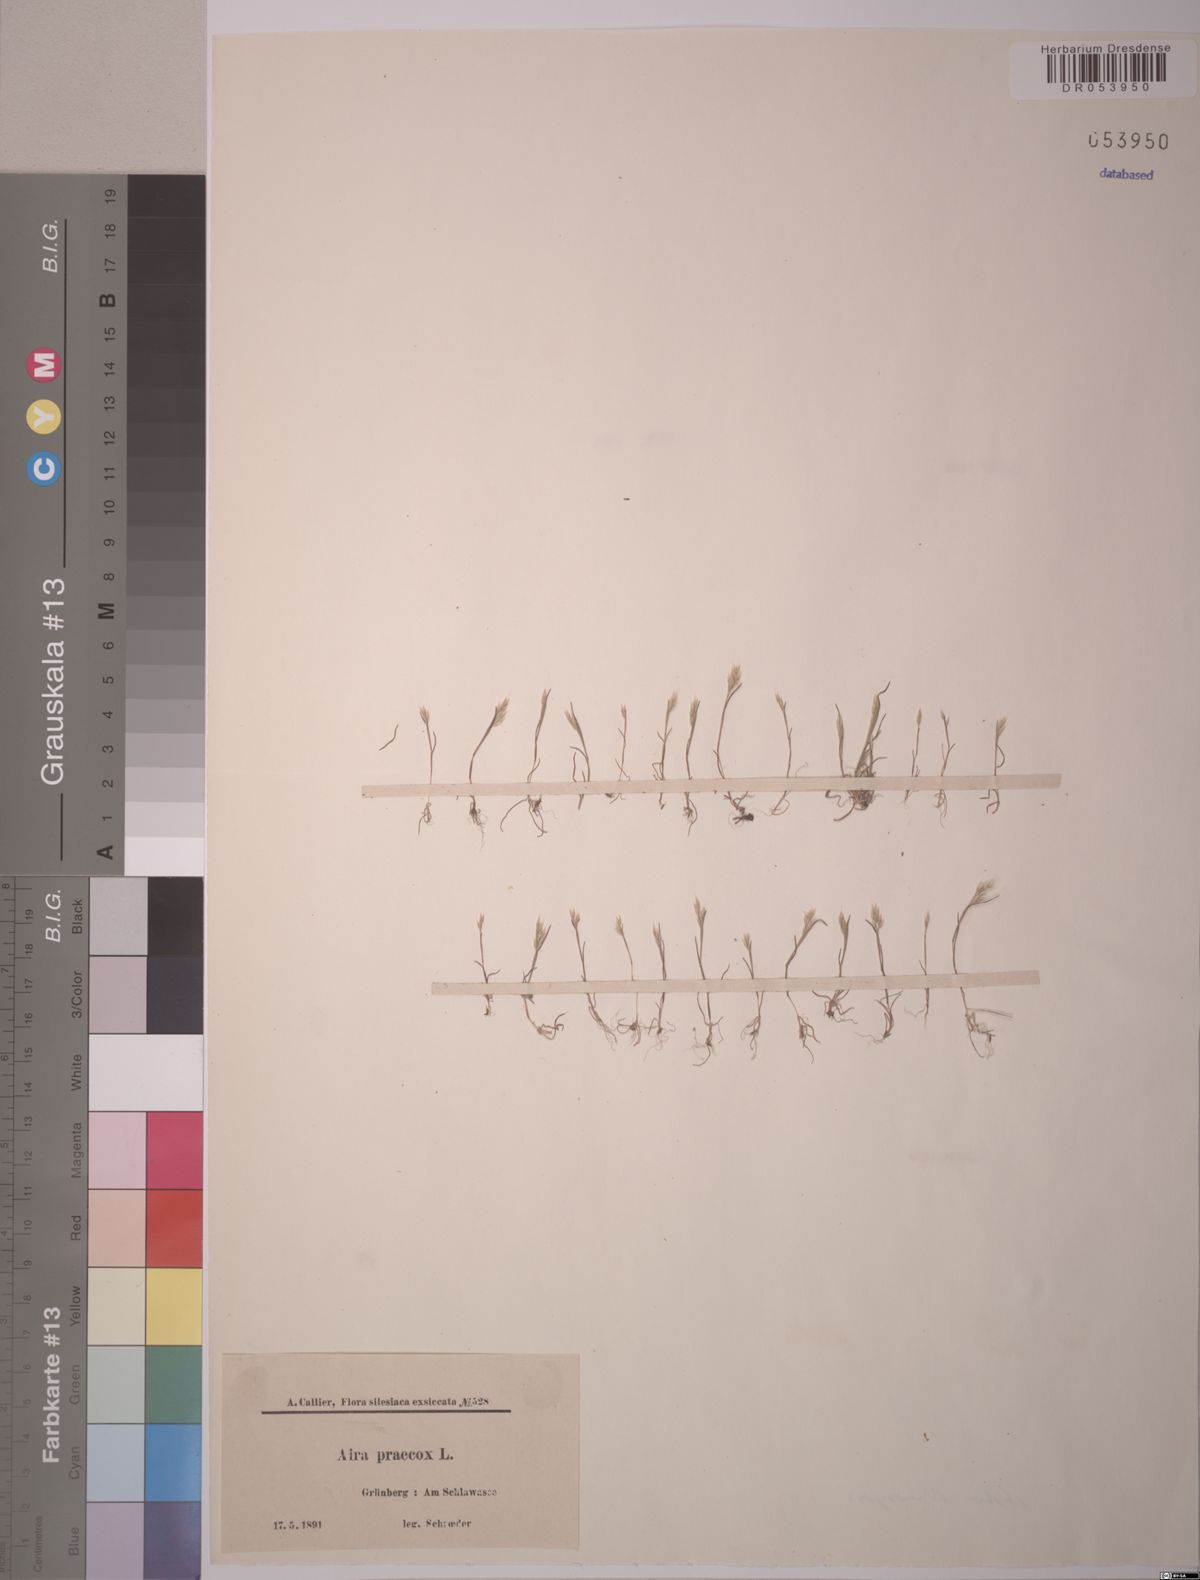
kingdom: Plantae
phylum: Tracheophyta
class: Liliopsida
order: Poales
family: Poaceae
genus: Aira
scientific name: Aira praecox
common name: Early hair-grass
